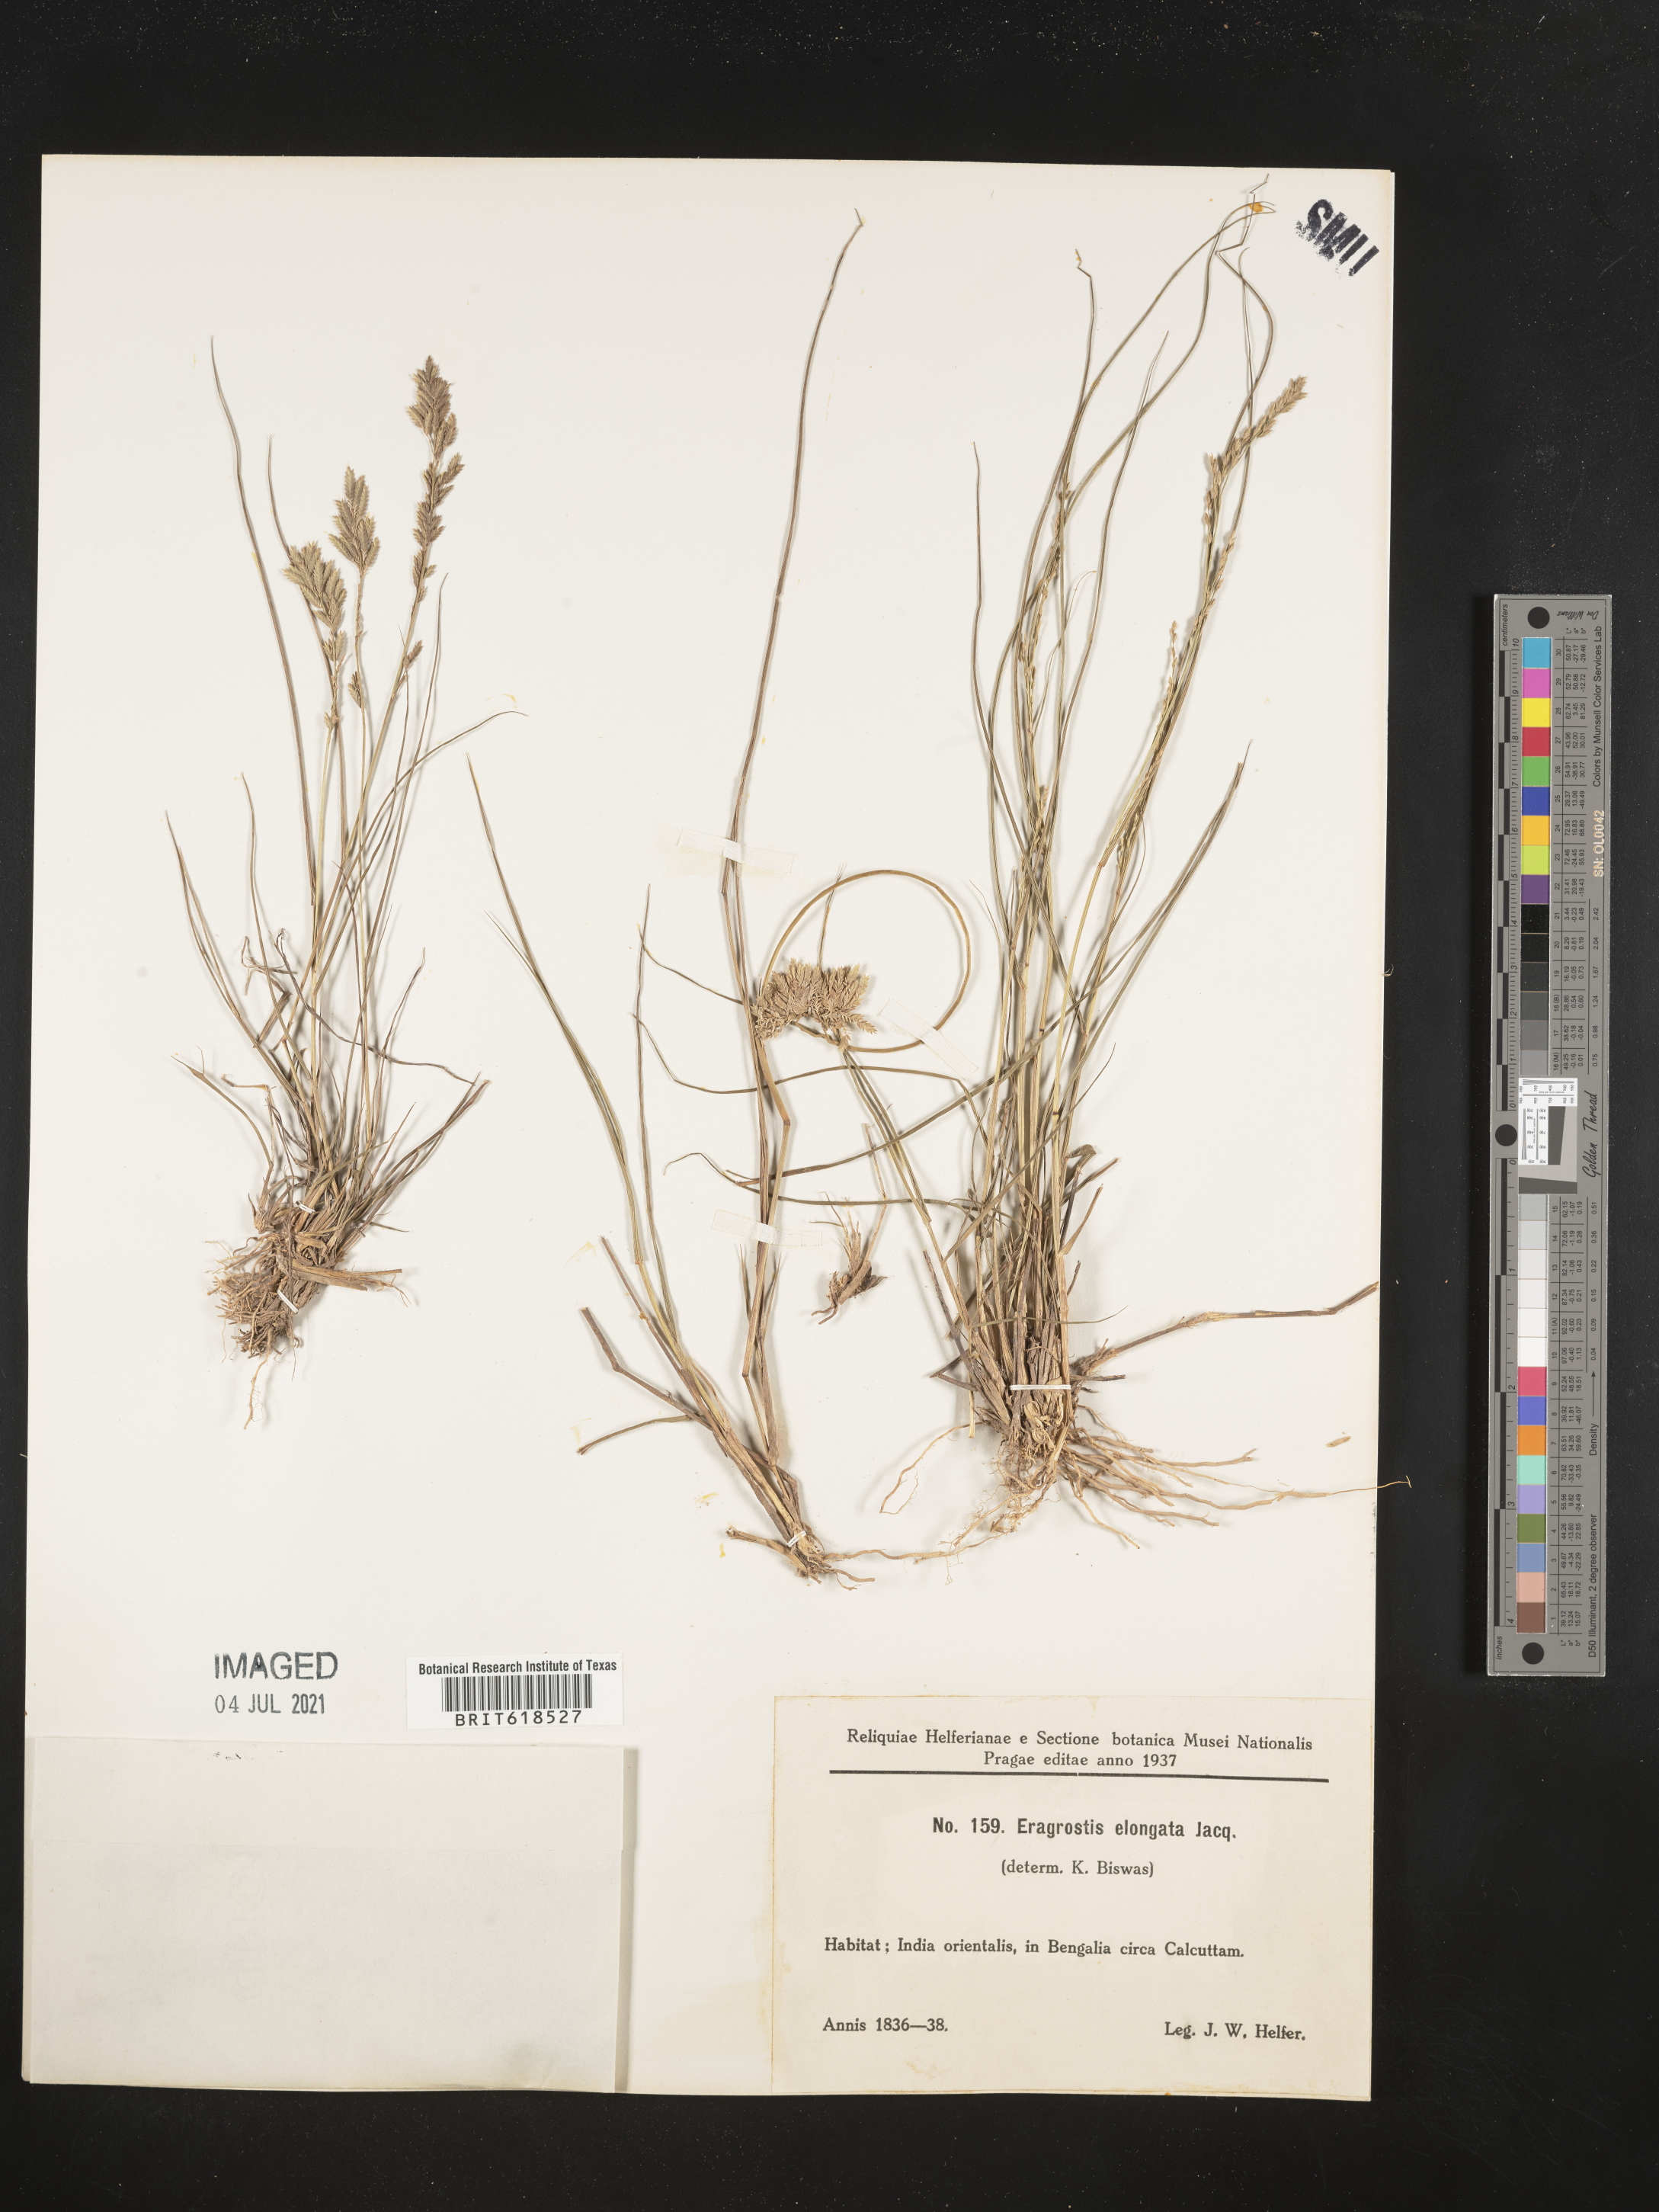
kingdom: Plantae
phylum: Tracheophyta
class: Liliopsida
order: Poales
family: Poaceae
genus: Eragrostis
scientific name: Eragrostis elongata
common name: Long lovegrass
